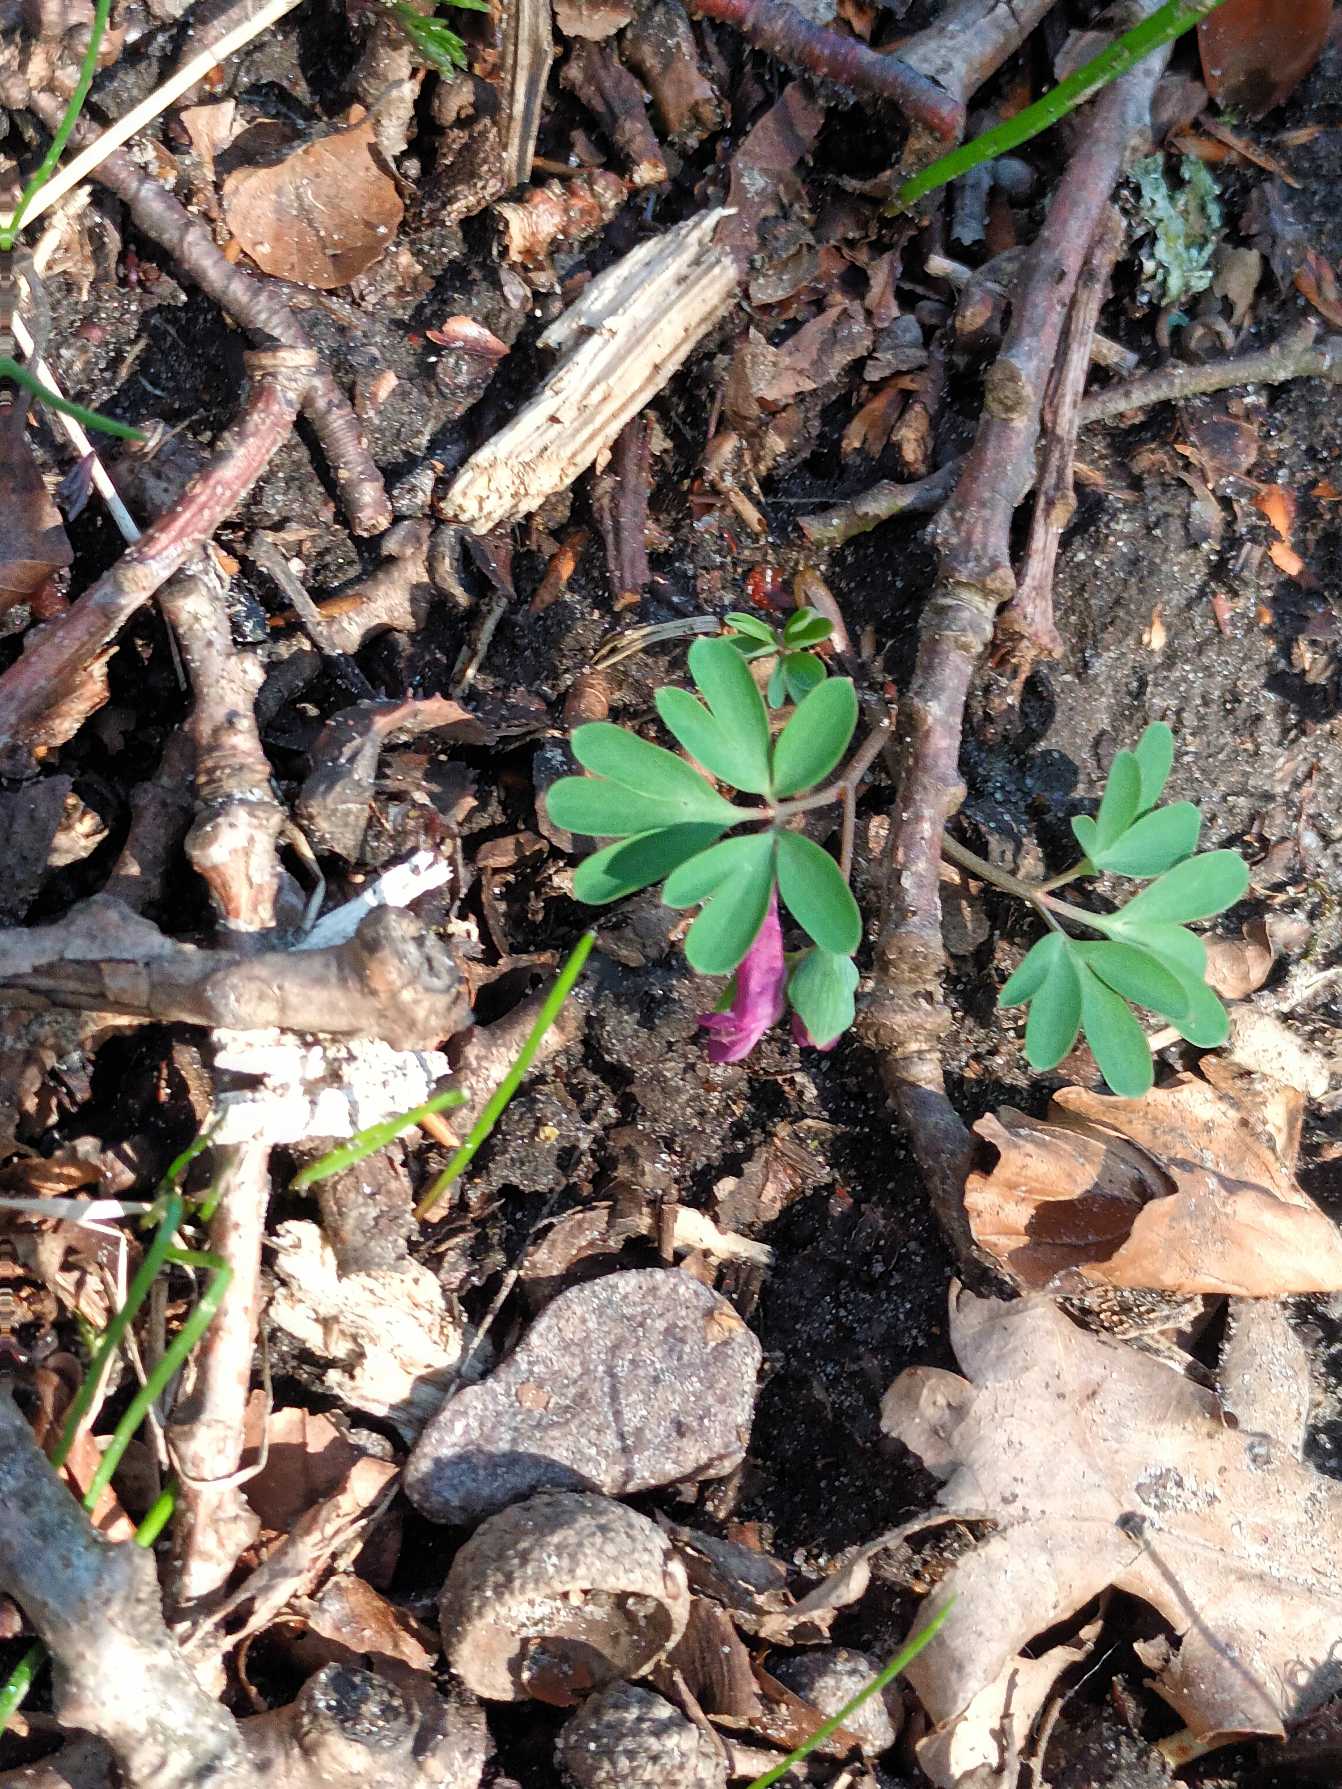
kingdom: Plantae
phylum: Tracheophyta
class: Magnoliopsida
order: Ranunculales
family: Papaveraceae
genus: Corydalis
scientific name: Corydalis intermedia
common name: Liden lærkespore
